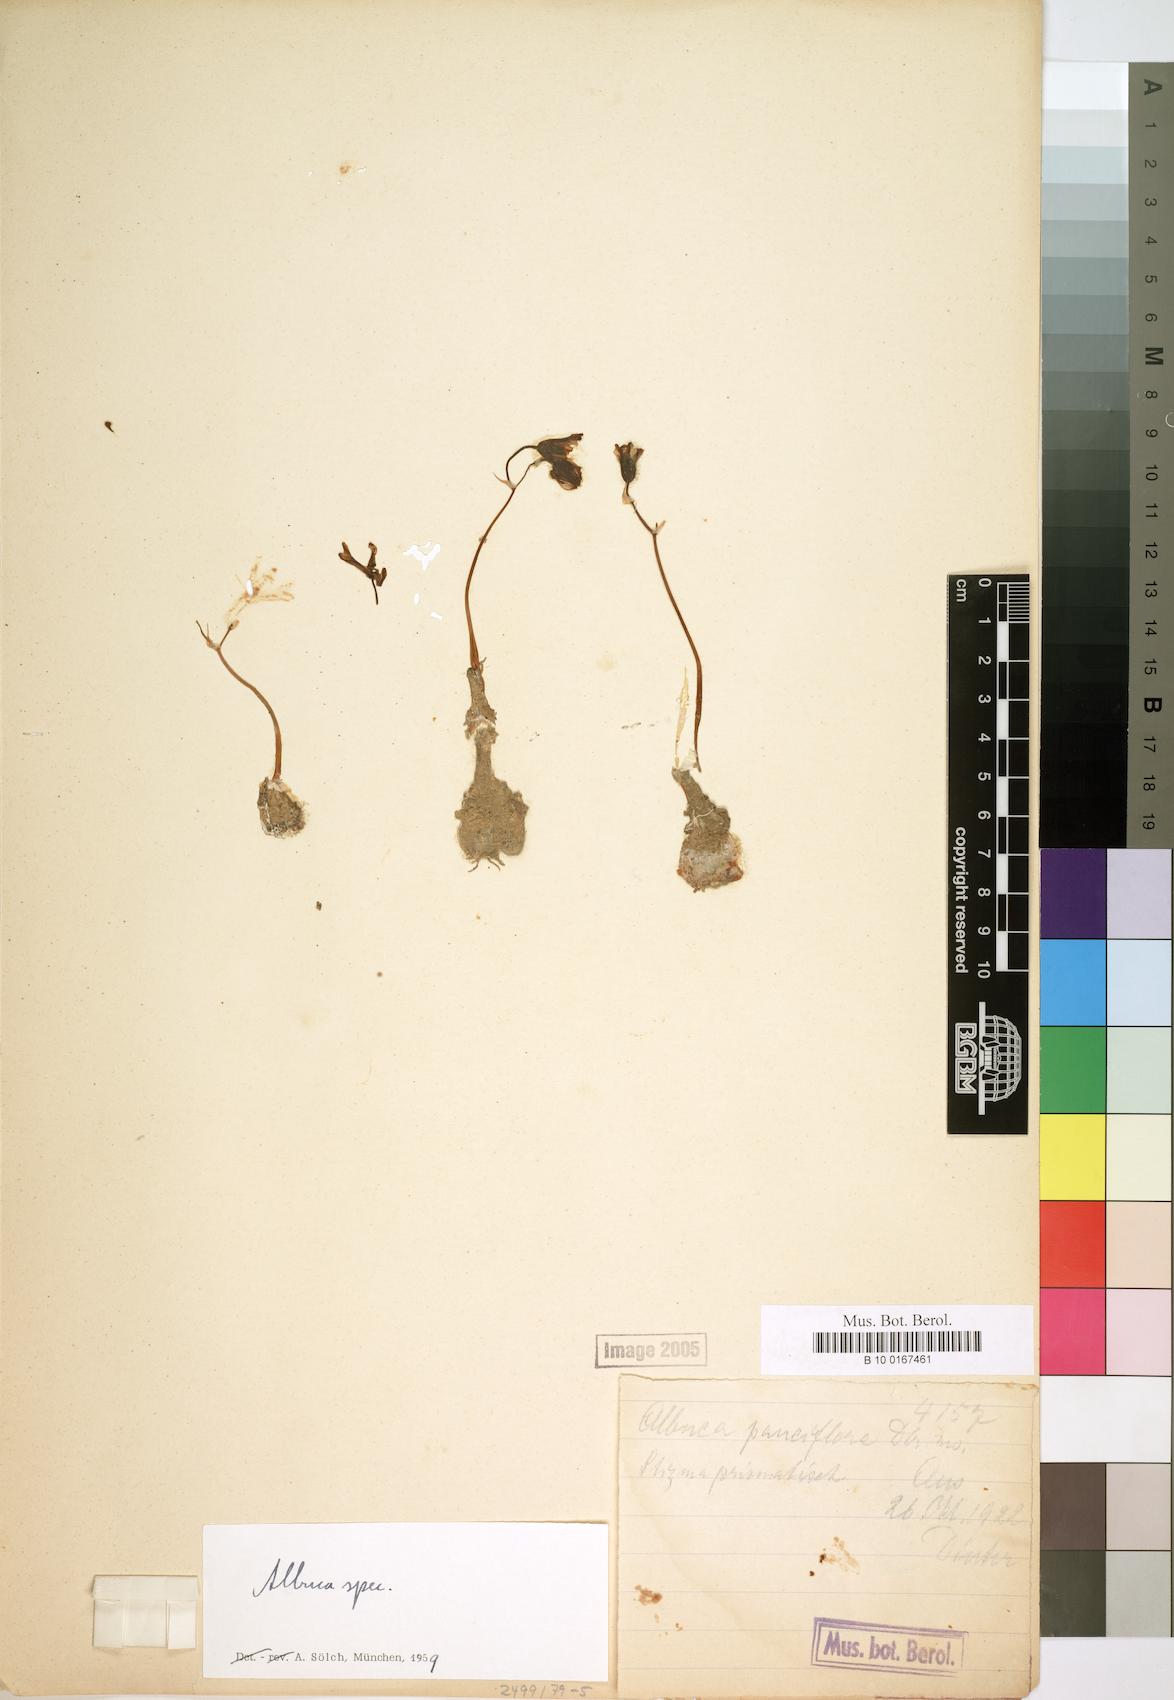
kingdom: Plantae
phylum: Tracheophyta
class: Liliopsida
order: Asparagales
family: Asparagaceae
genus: Albuca
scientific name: Albuca
